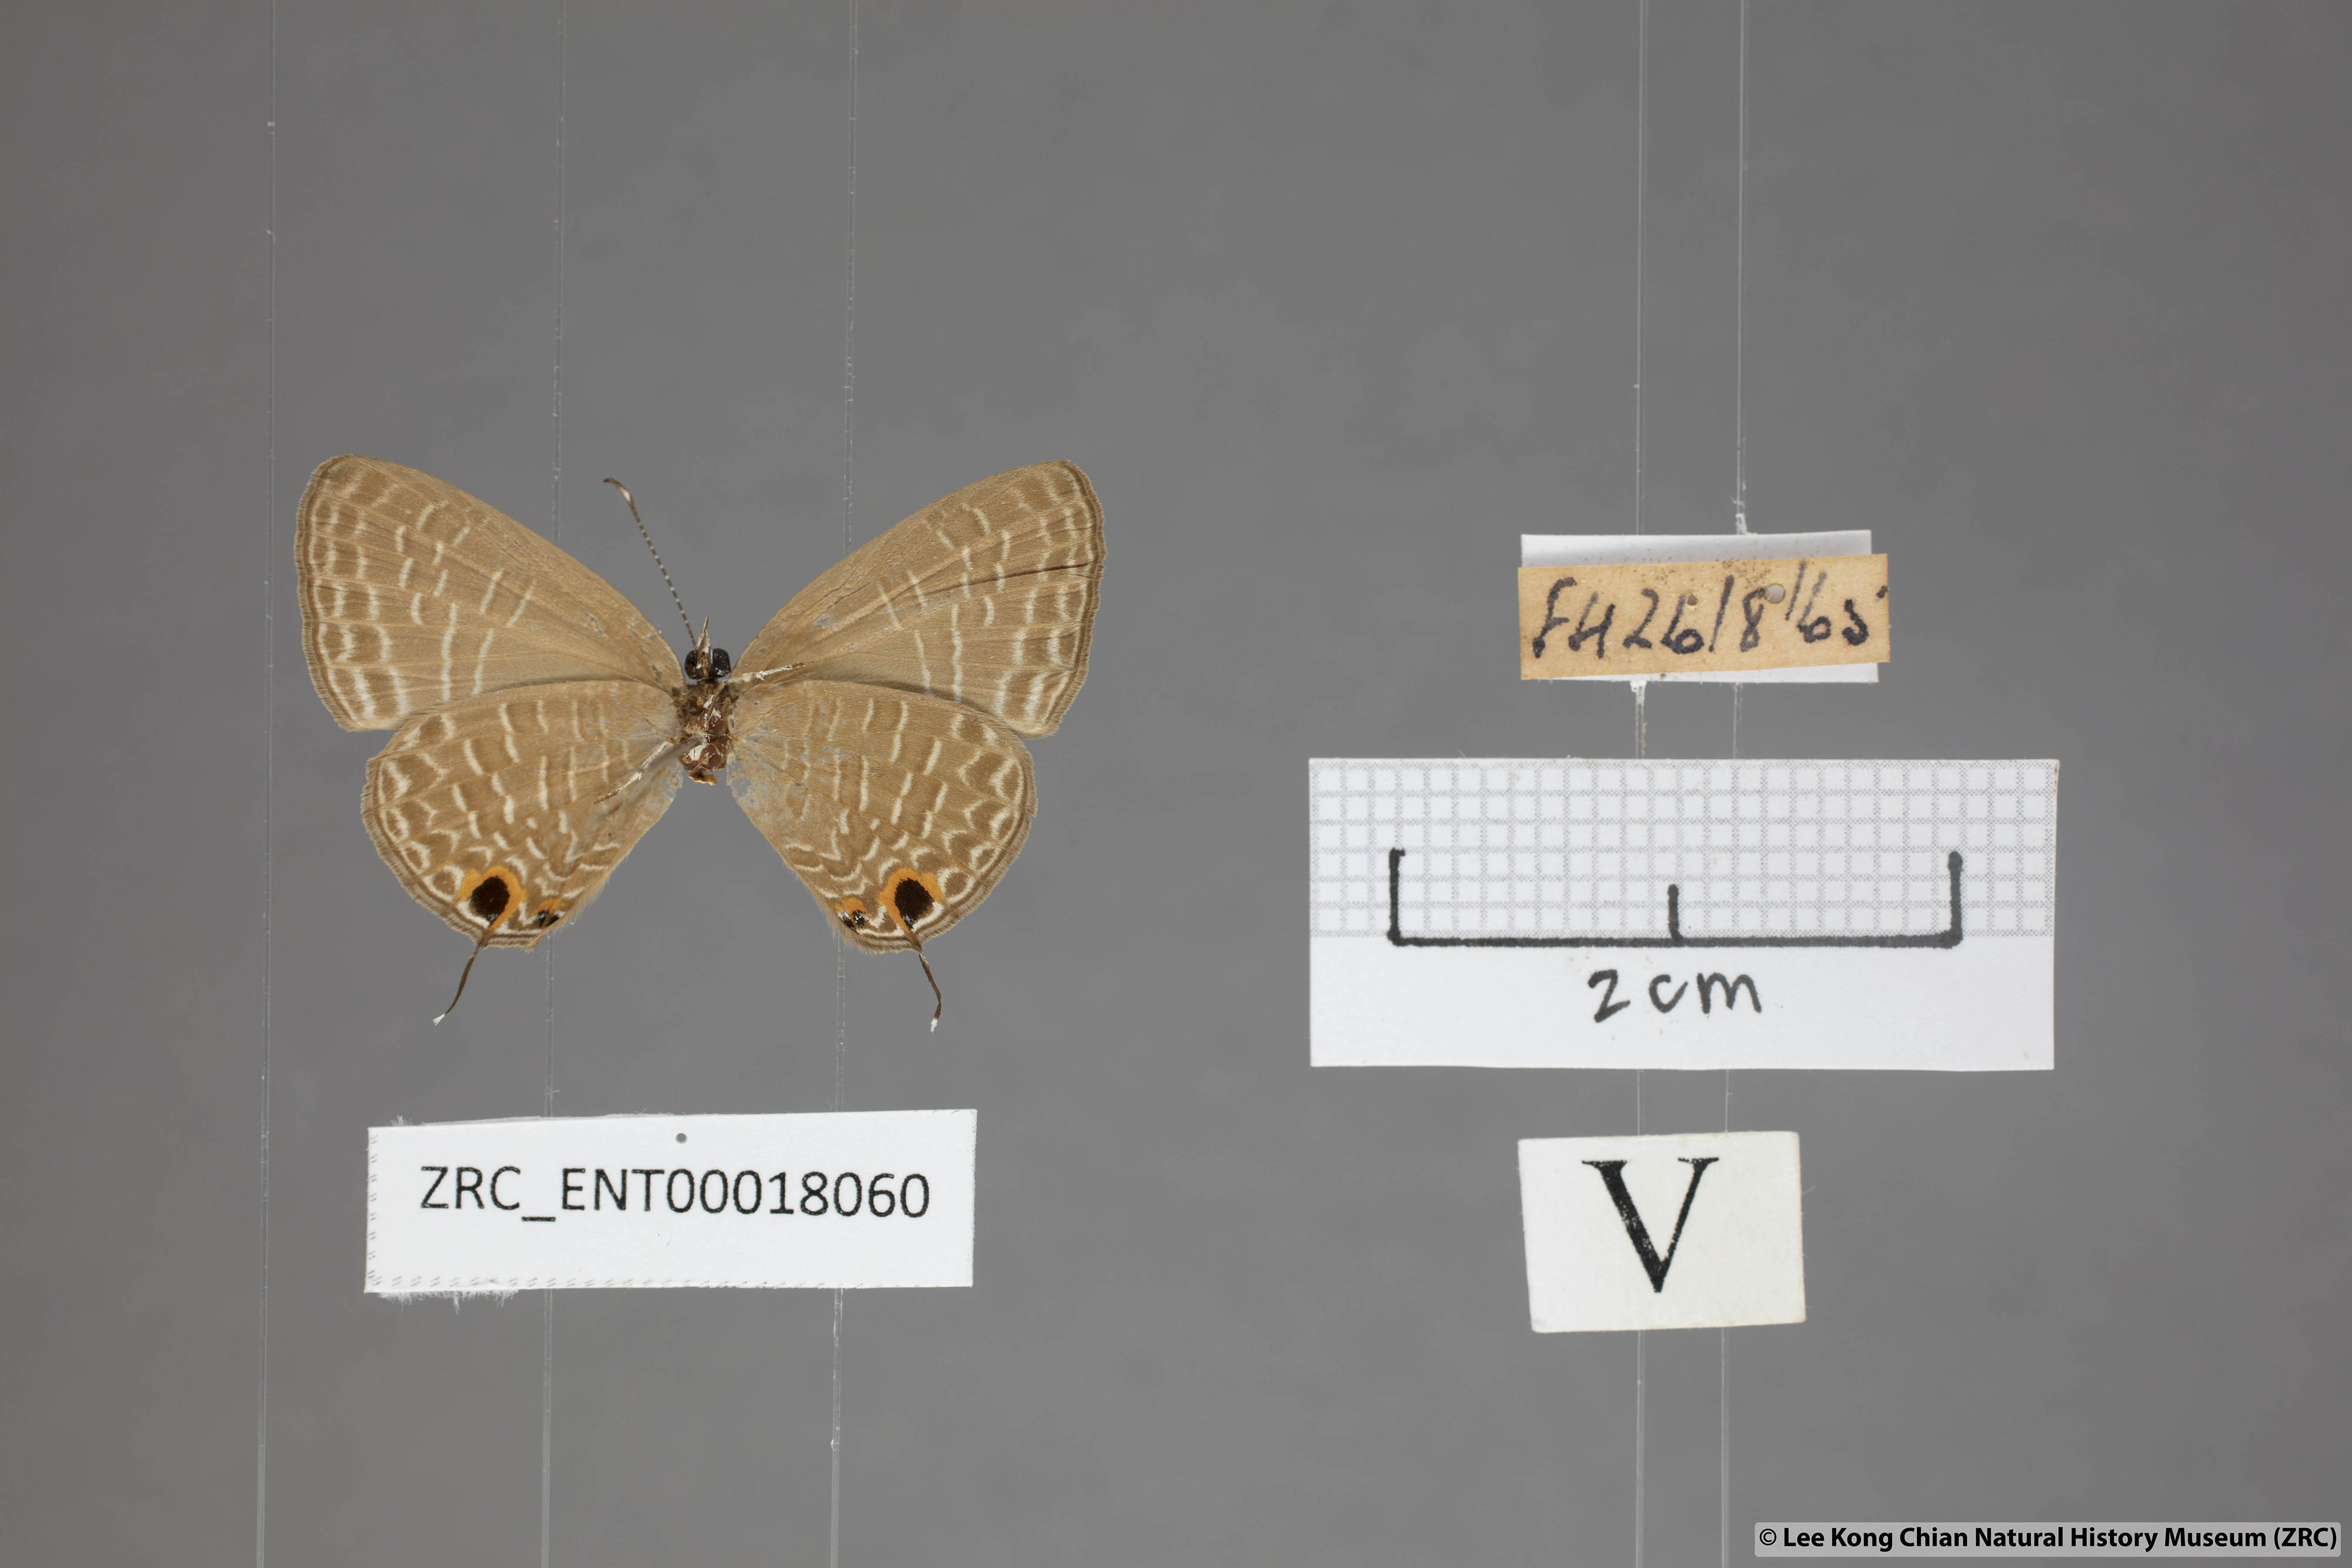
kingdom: Animalia
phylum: Arthropoda
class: Insecta
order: Lepidoptera
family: Lycaenidae
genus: Jamides
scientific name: Jamides bochus
